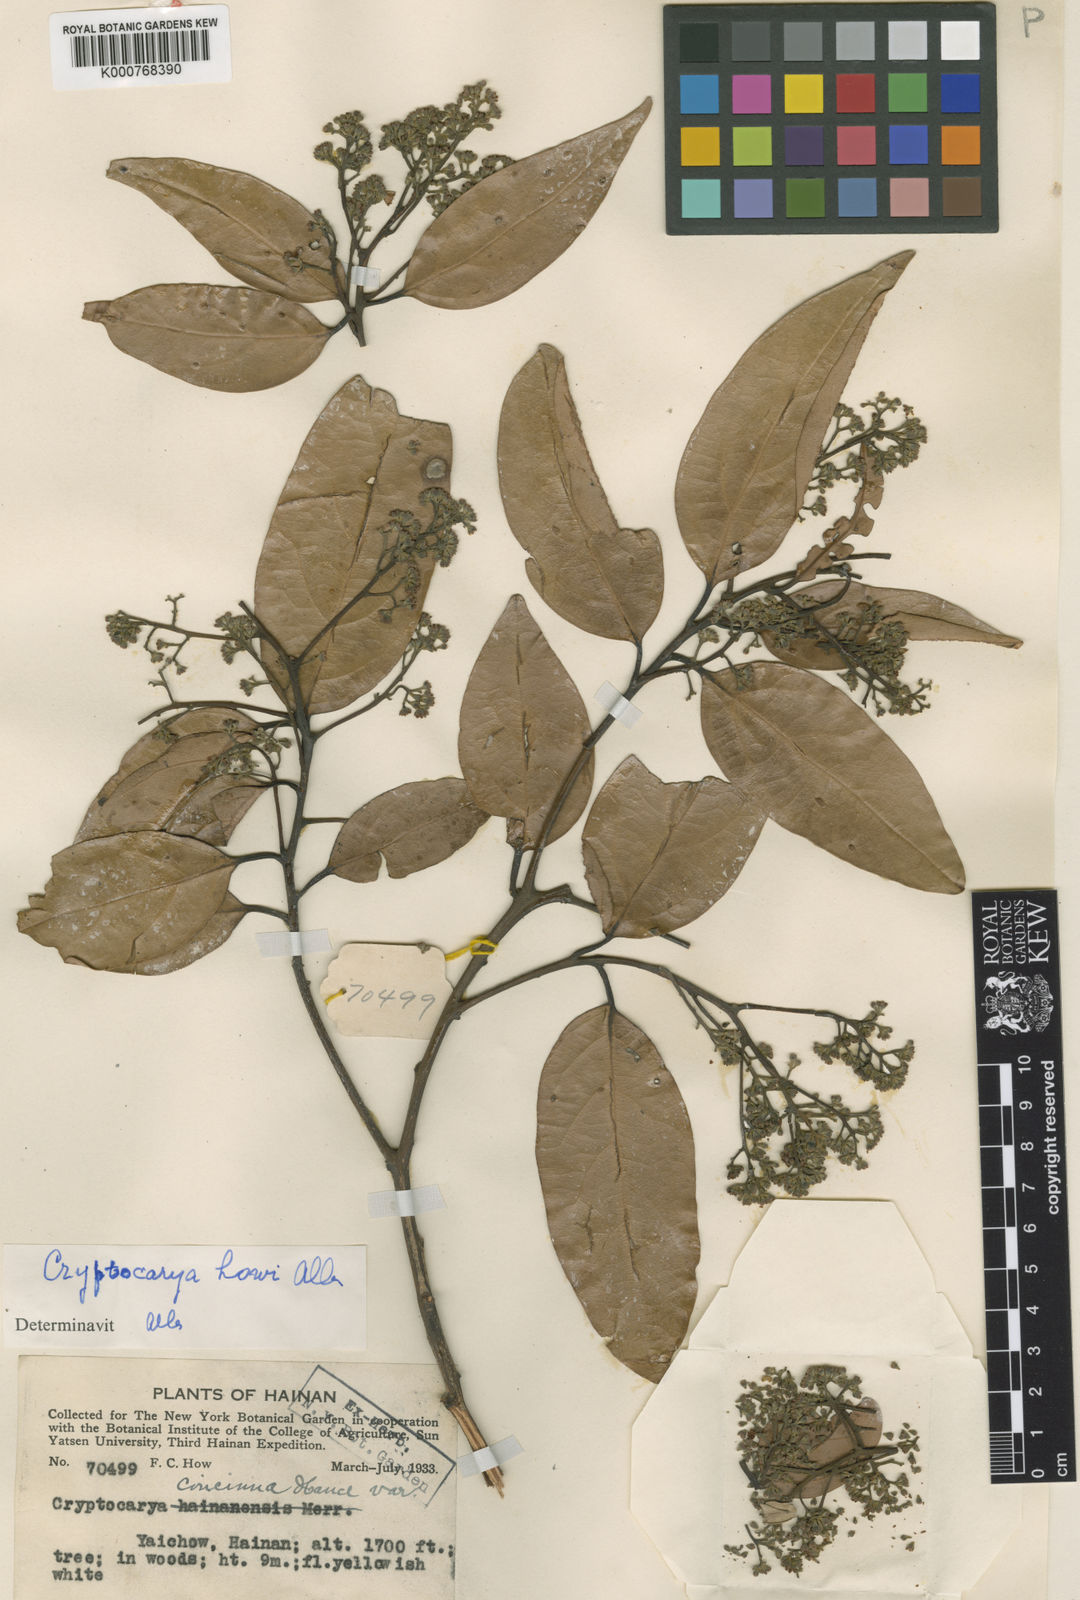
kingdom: Plantae
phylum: Tracheophyta
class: Magnoliopsida
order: Laurales
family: Lauraceae
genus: Cryptocarya
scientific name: Cryptocarya metcalfiana
